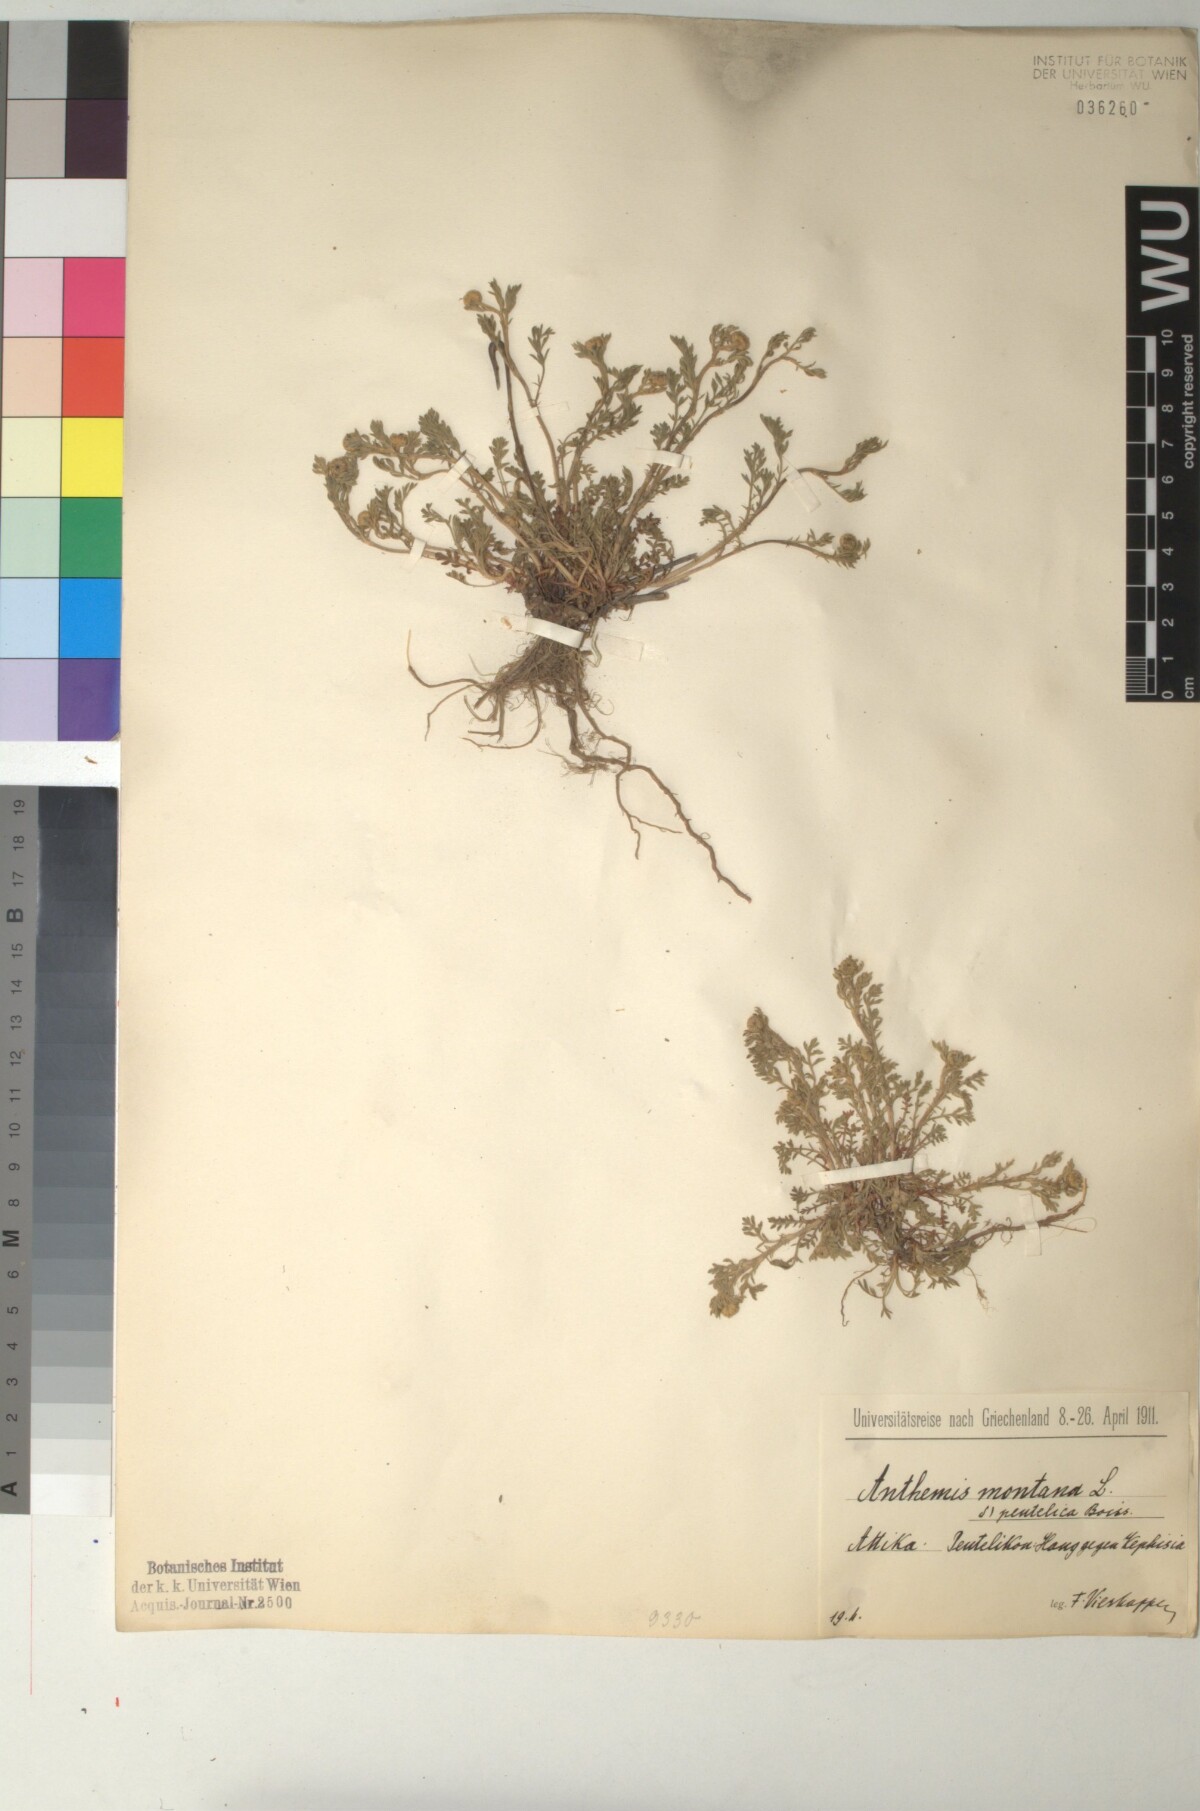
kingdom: Plantae
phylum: Tracheophyta
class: Magnoliopsida
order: Asterales
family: Asteraceae
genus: Anthemis
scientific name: Anthemis cretica
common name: Mountain dog-daisy
